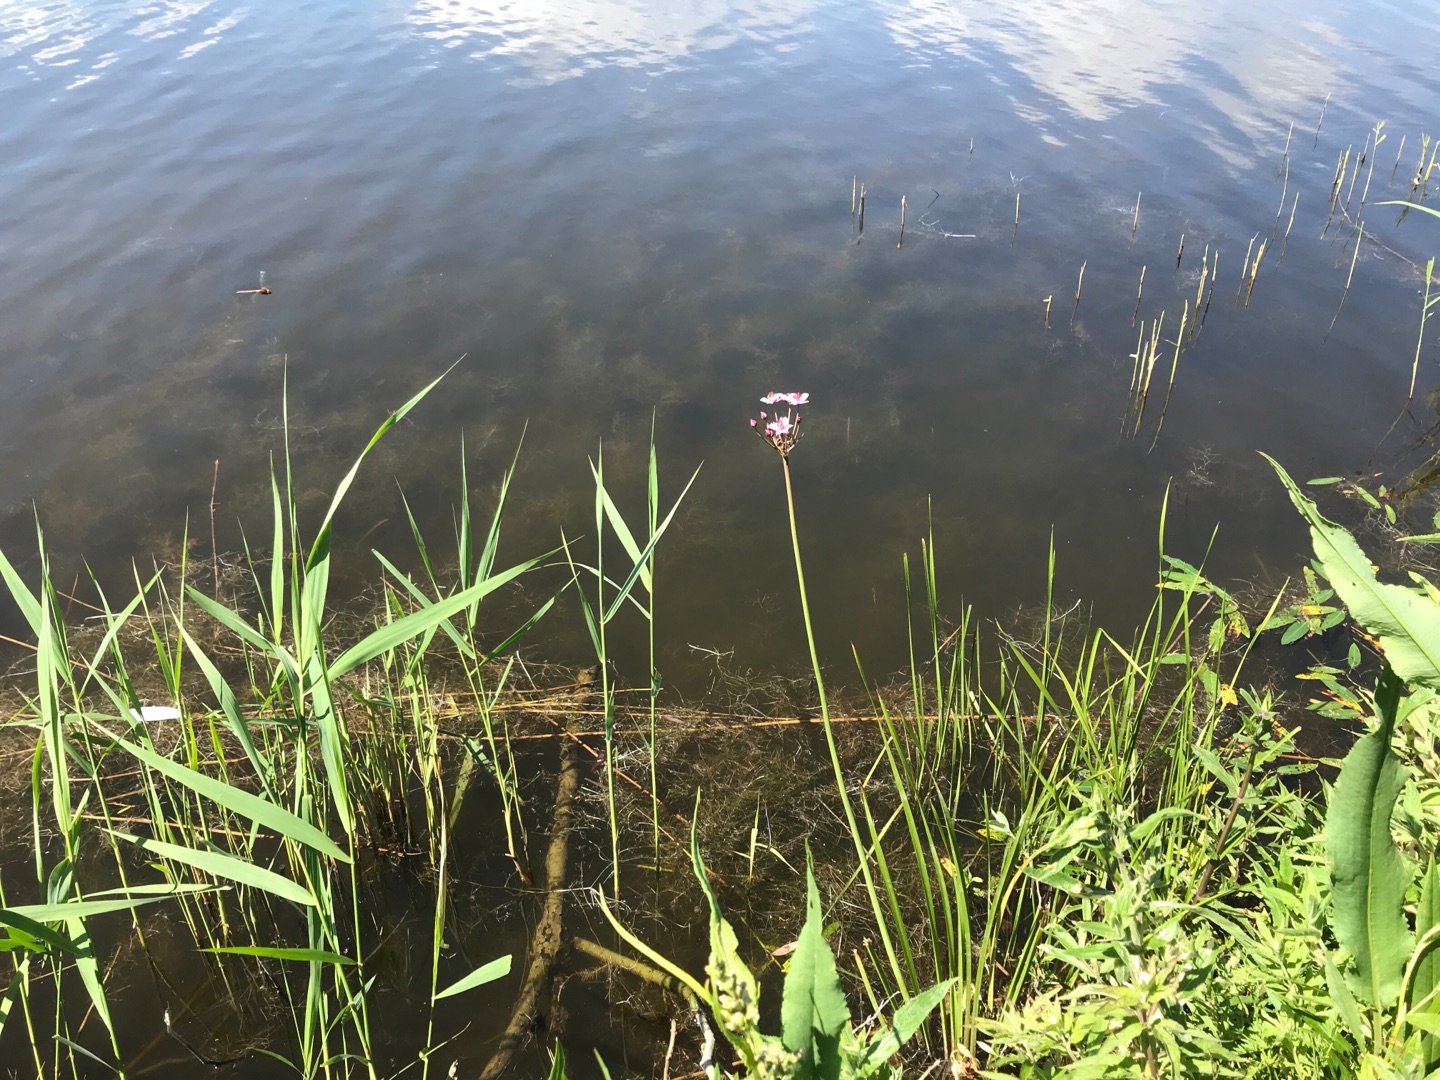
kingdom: Plantae
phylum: Tracheophyta
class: Liliopsida
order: Alismatales
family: Butomaceae
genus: Butomus
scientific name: Butomus umbellatus
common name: Brudelys
